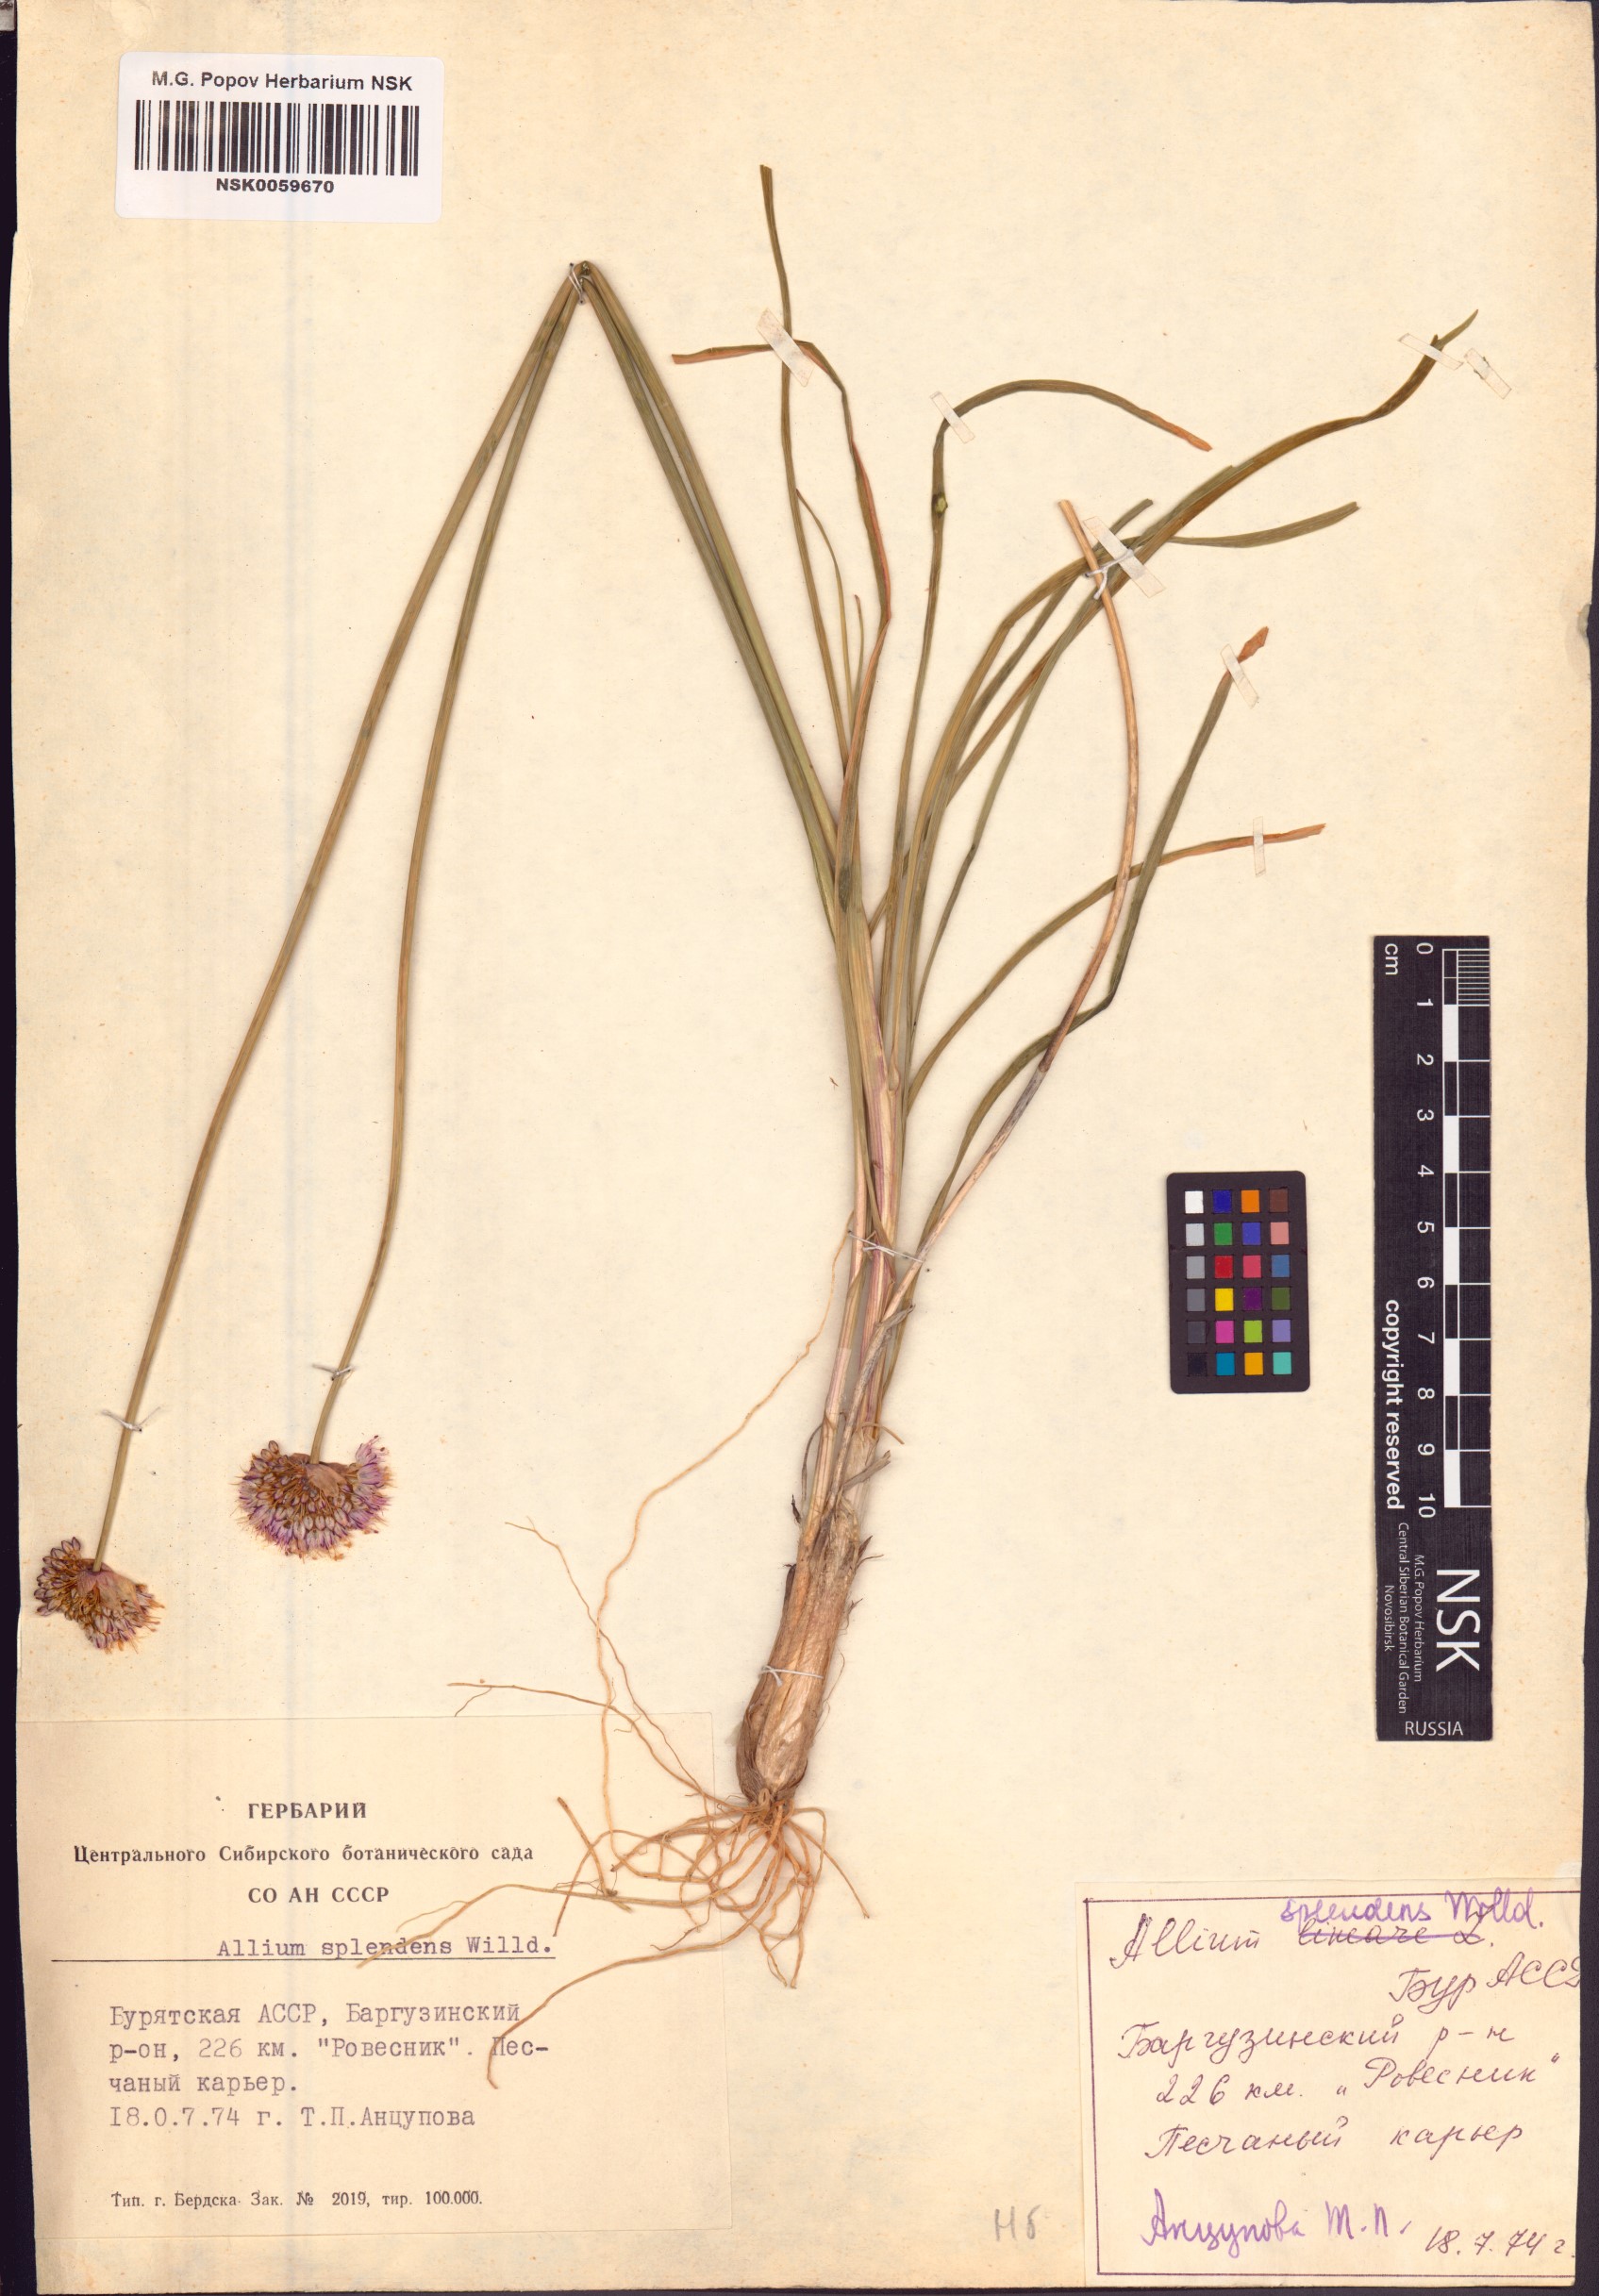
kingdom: Plantae
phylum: Tracheophyta
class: Liliopsida
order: Asparagales
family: Amaryllidaceae
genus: Allium
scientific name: Allium splendens
